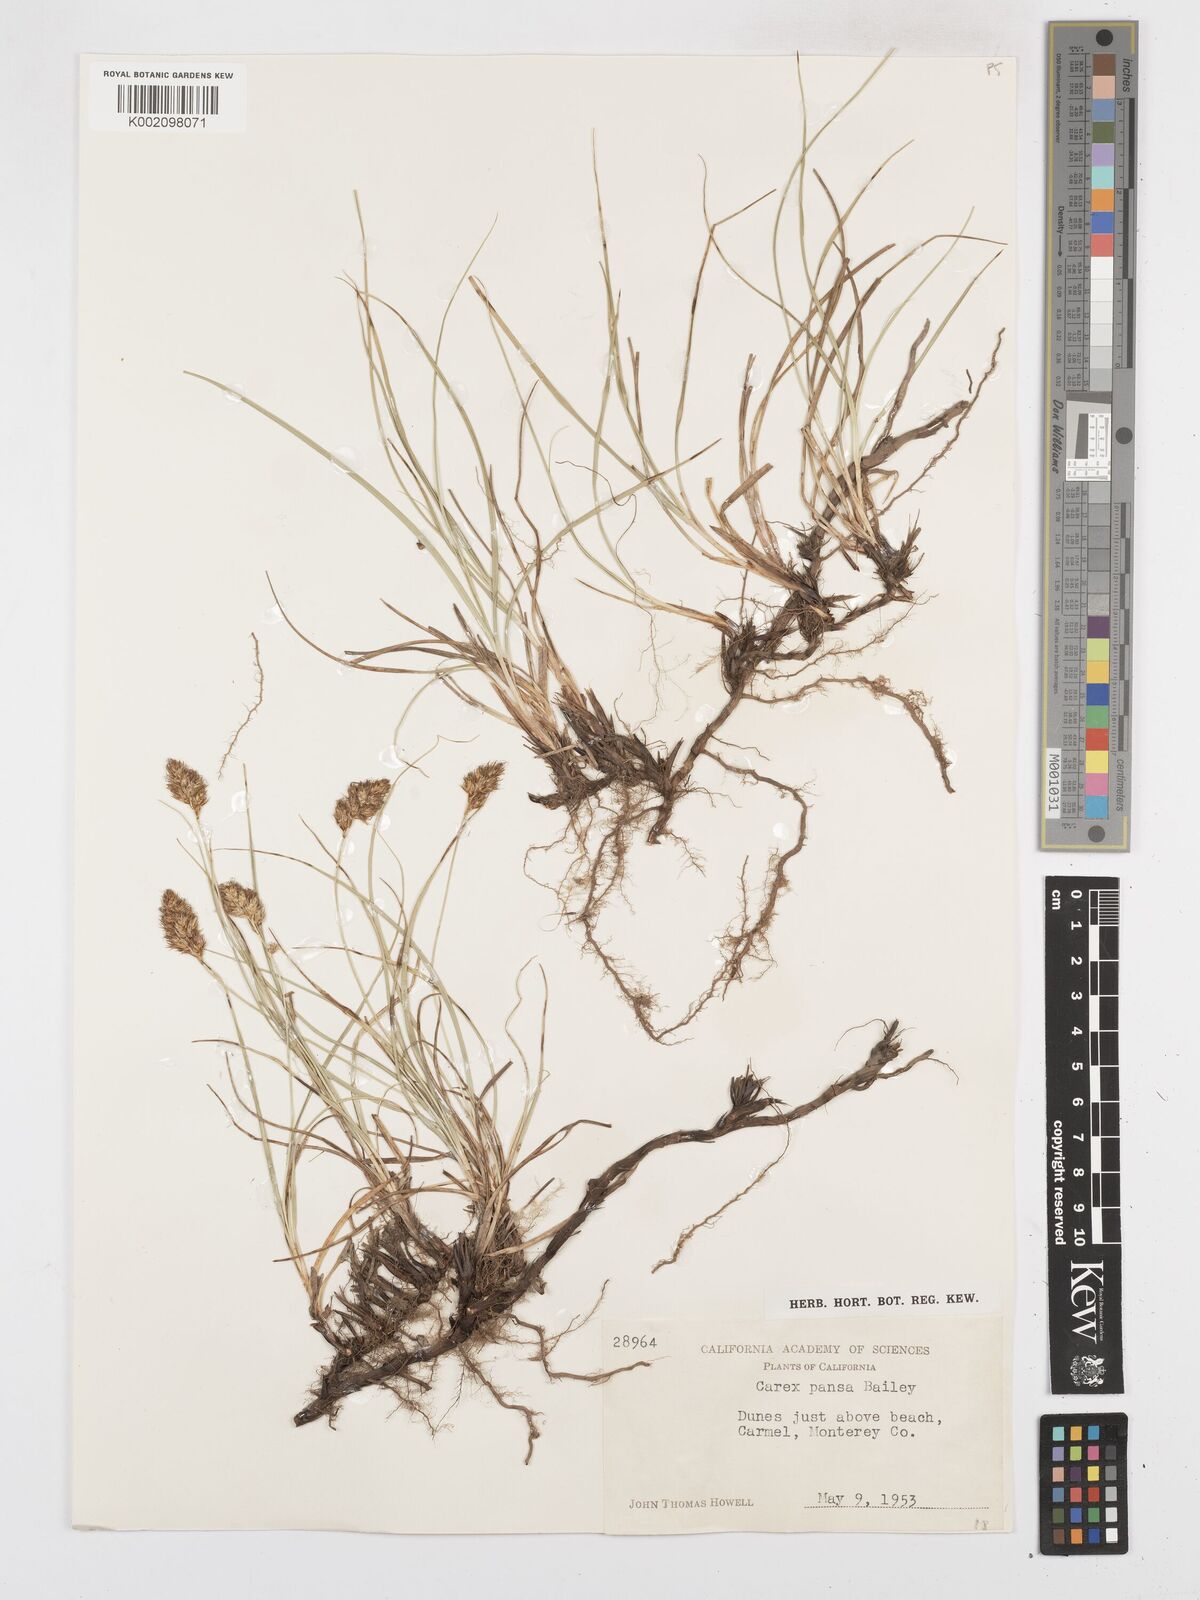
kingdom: Plantae
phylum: Tracheophyta
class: Liliopsida
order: Poales
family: Cyperaceae
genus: Carex
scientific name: Carex pansa
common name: Sand sedge
